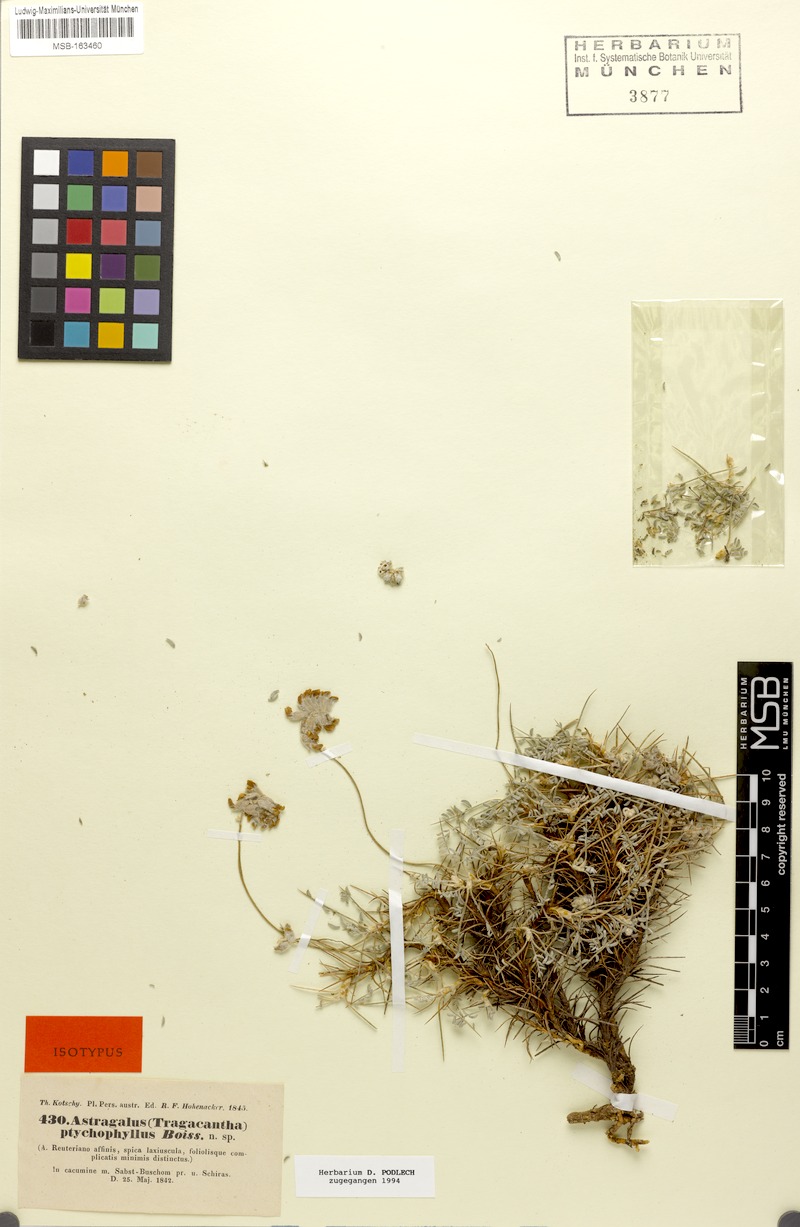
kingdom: Plantae
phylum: Tracheophyta
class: Magnoliopsida
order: Fabales
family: Fabaceae
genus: Astragalus
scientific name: Astragalus ptychophyllus
